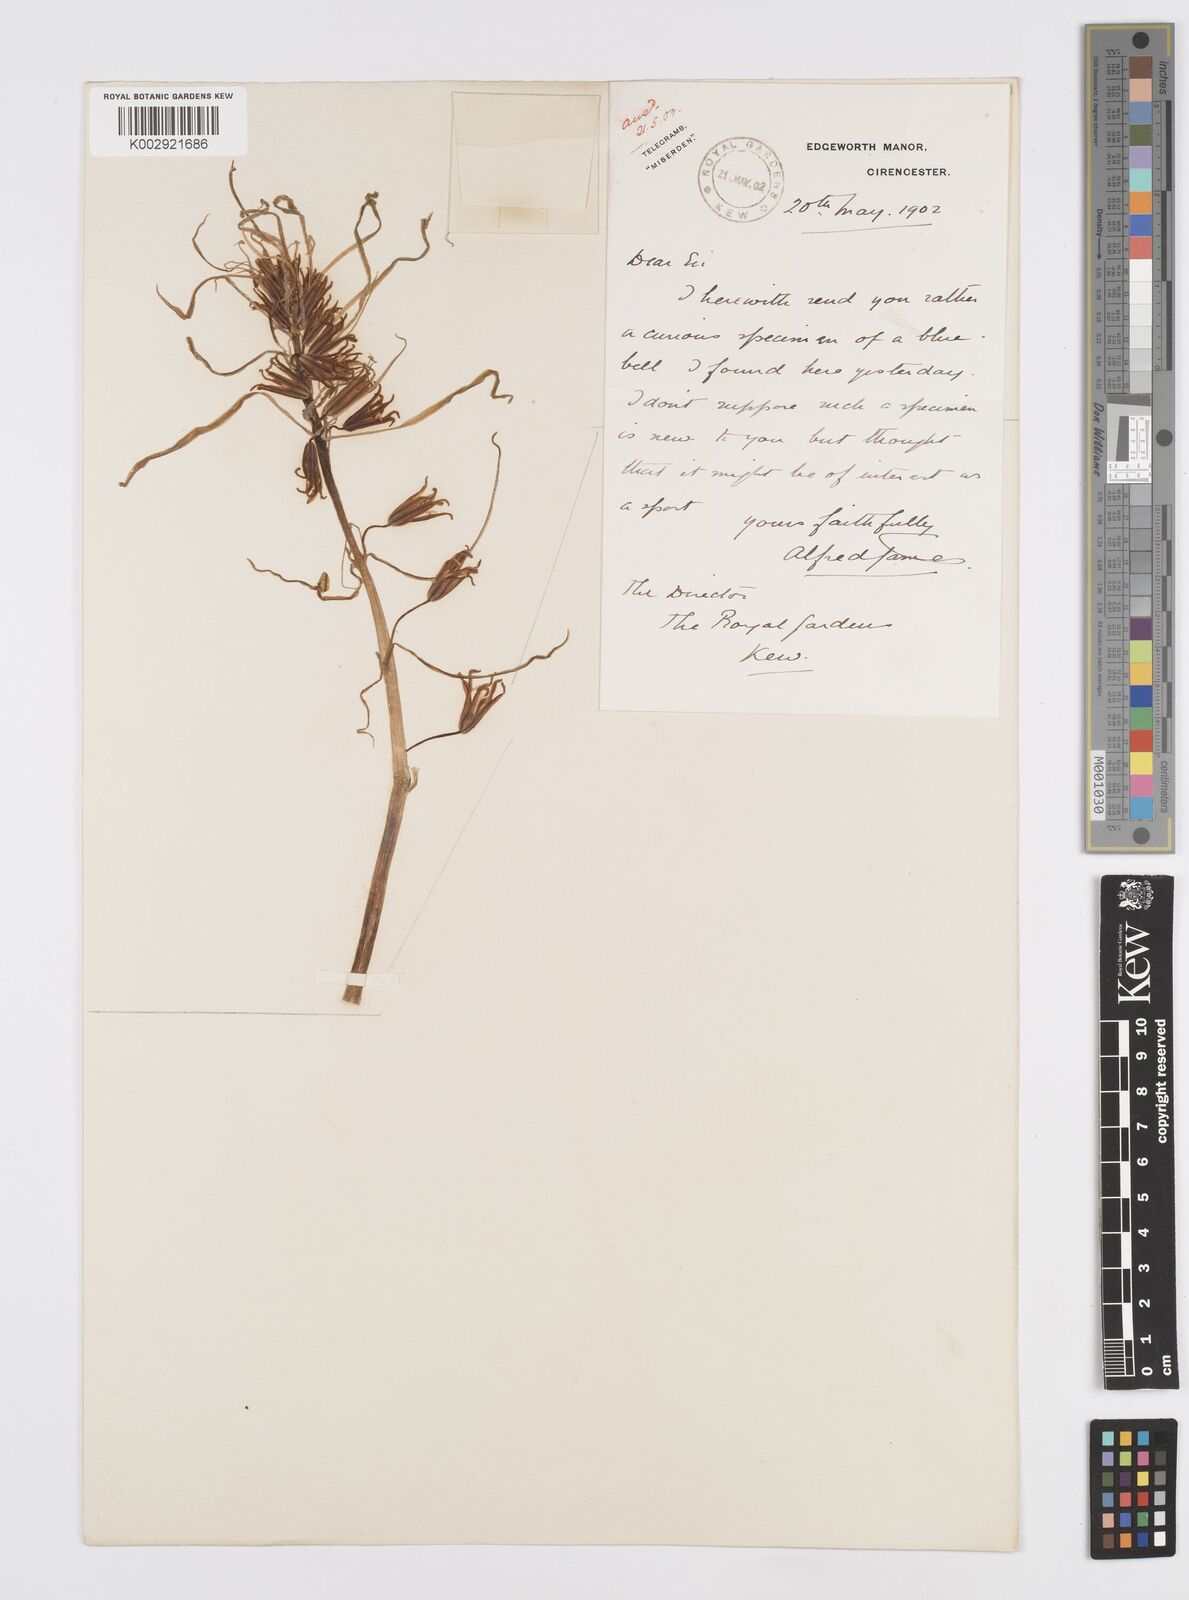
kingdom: Plantae
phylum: Tracheophyta
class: Liliopsida
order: Asparagales
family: Asparagaceae
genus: Hyacinthoides
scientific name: Hyacinthoides
